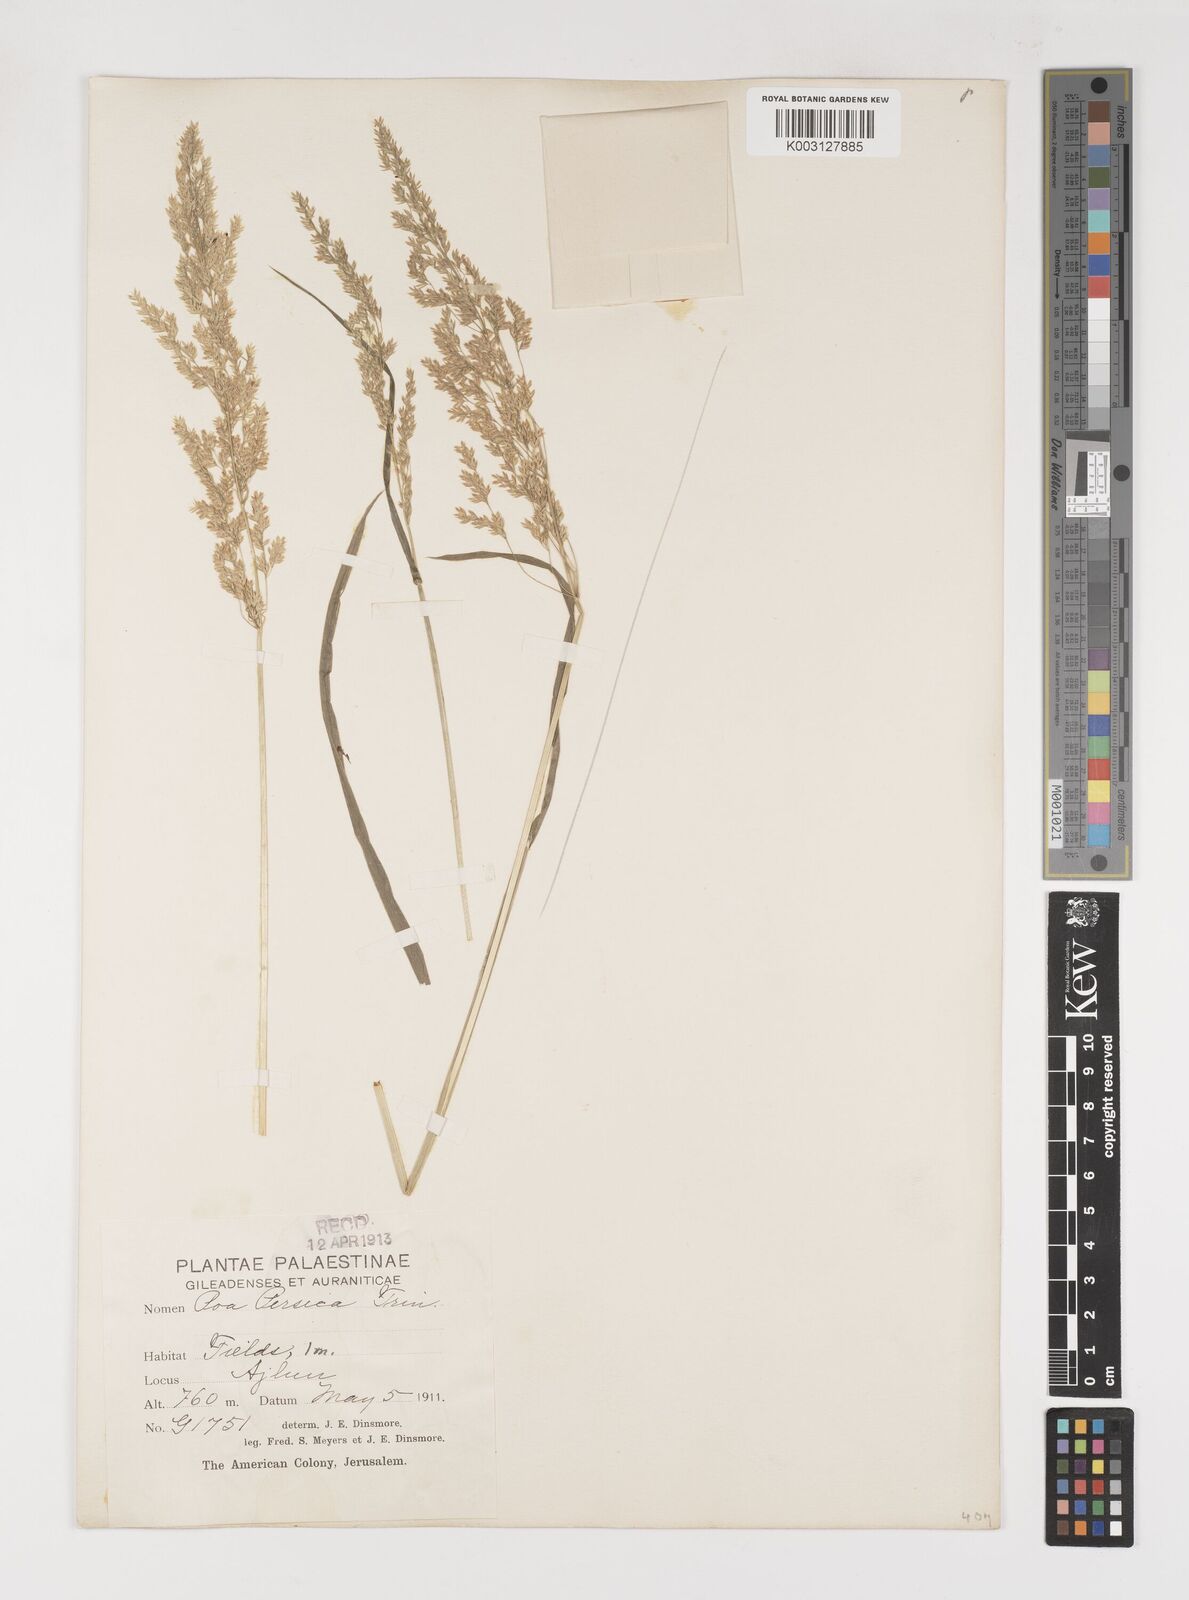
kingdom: Plantae
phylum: Tracheophyta
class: Liliopsida
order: Poales
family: Poaceae
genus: Poa
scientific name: Poa trivialis
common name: Rough bluegrass
